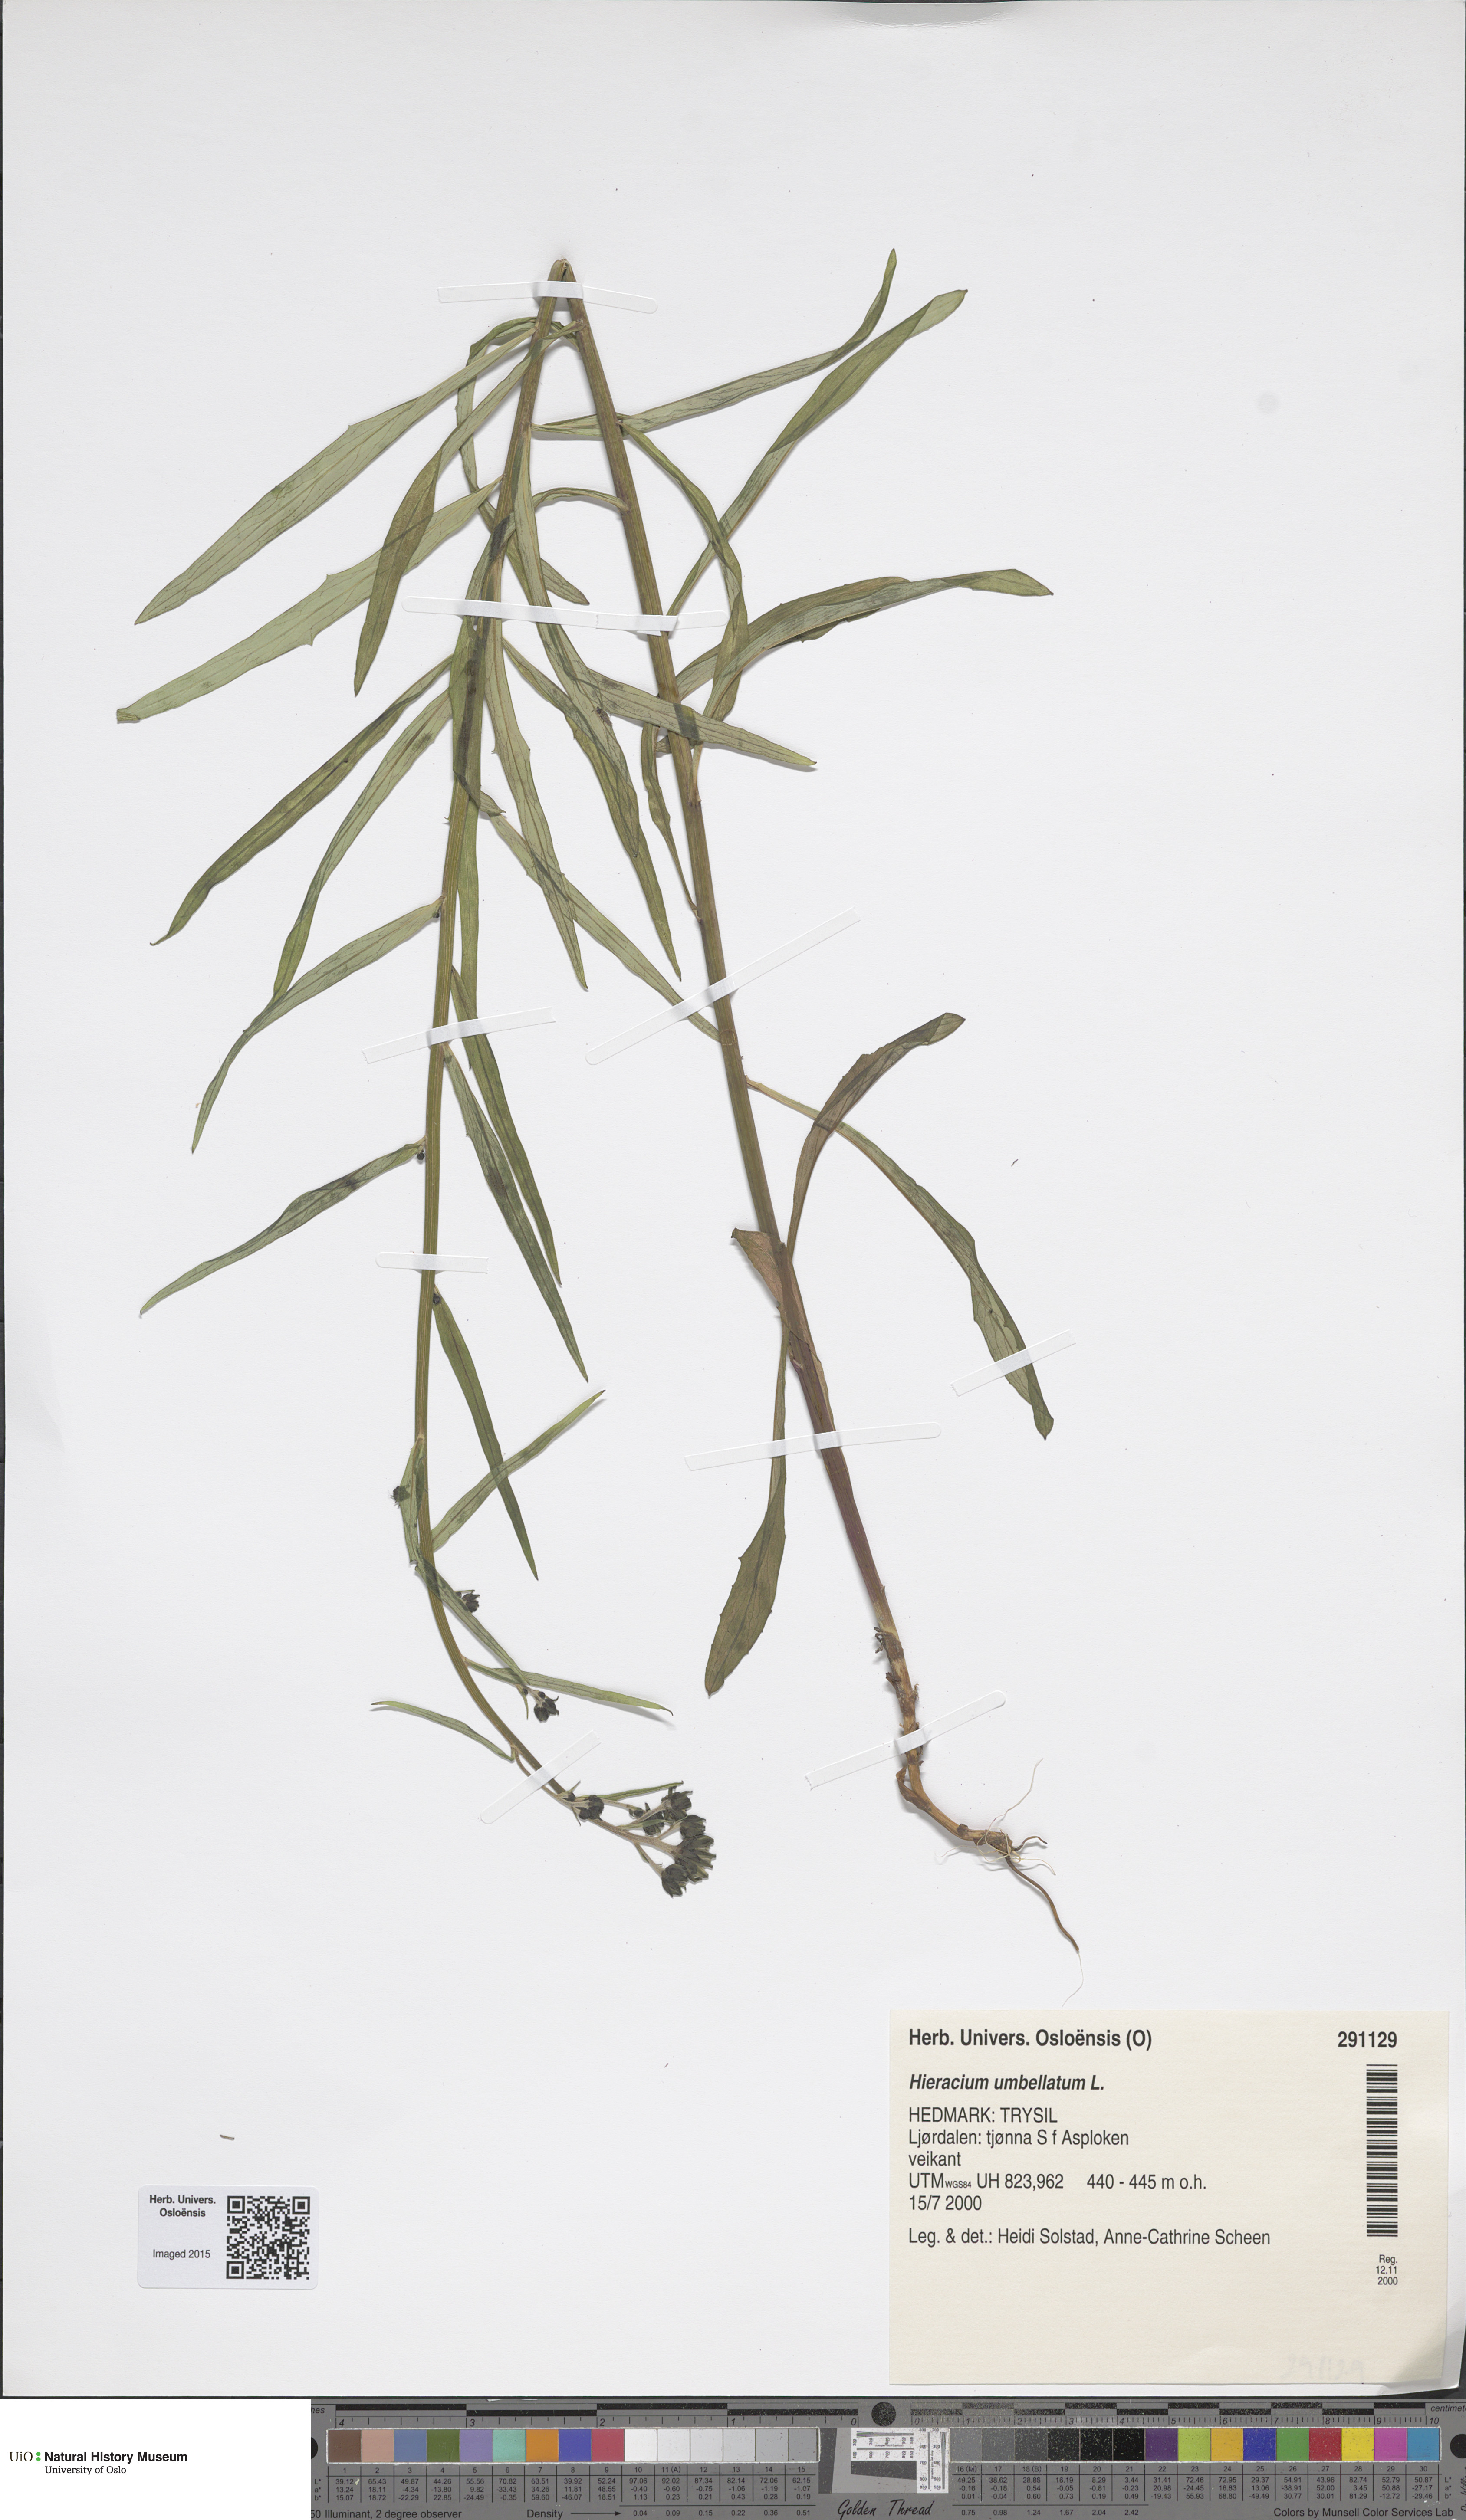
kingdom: Plantae
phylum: Tracheophyta
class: Magnoliopsida
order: Asterales
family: Asteraceae
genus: Hieracium
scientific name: Hieracium umbellatum
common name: Northern hawkweed
